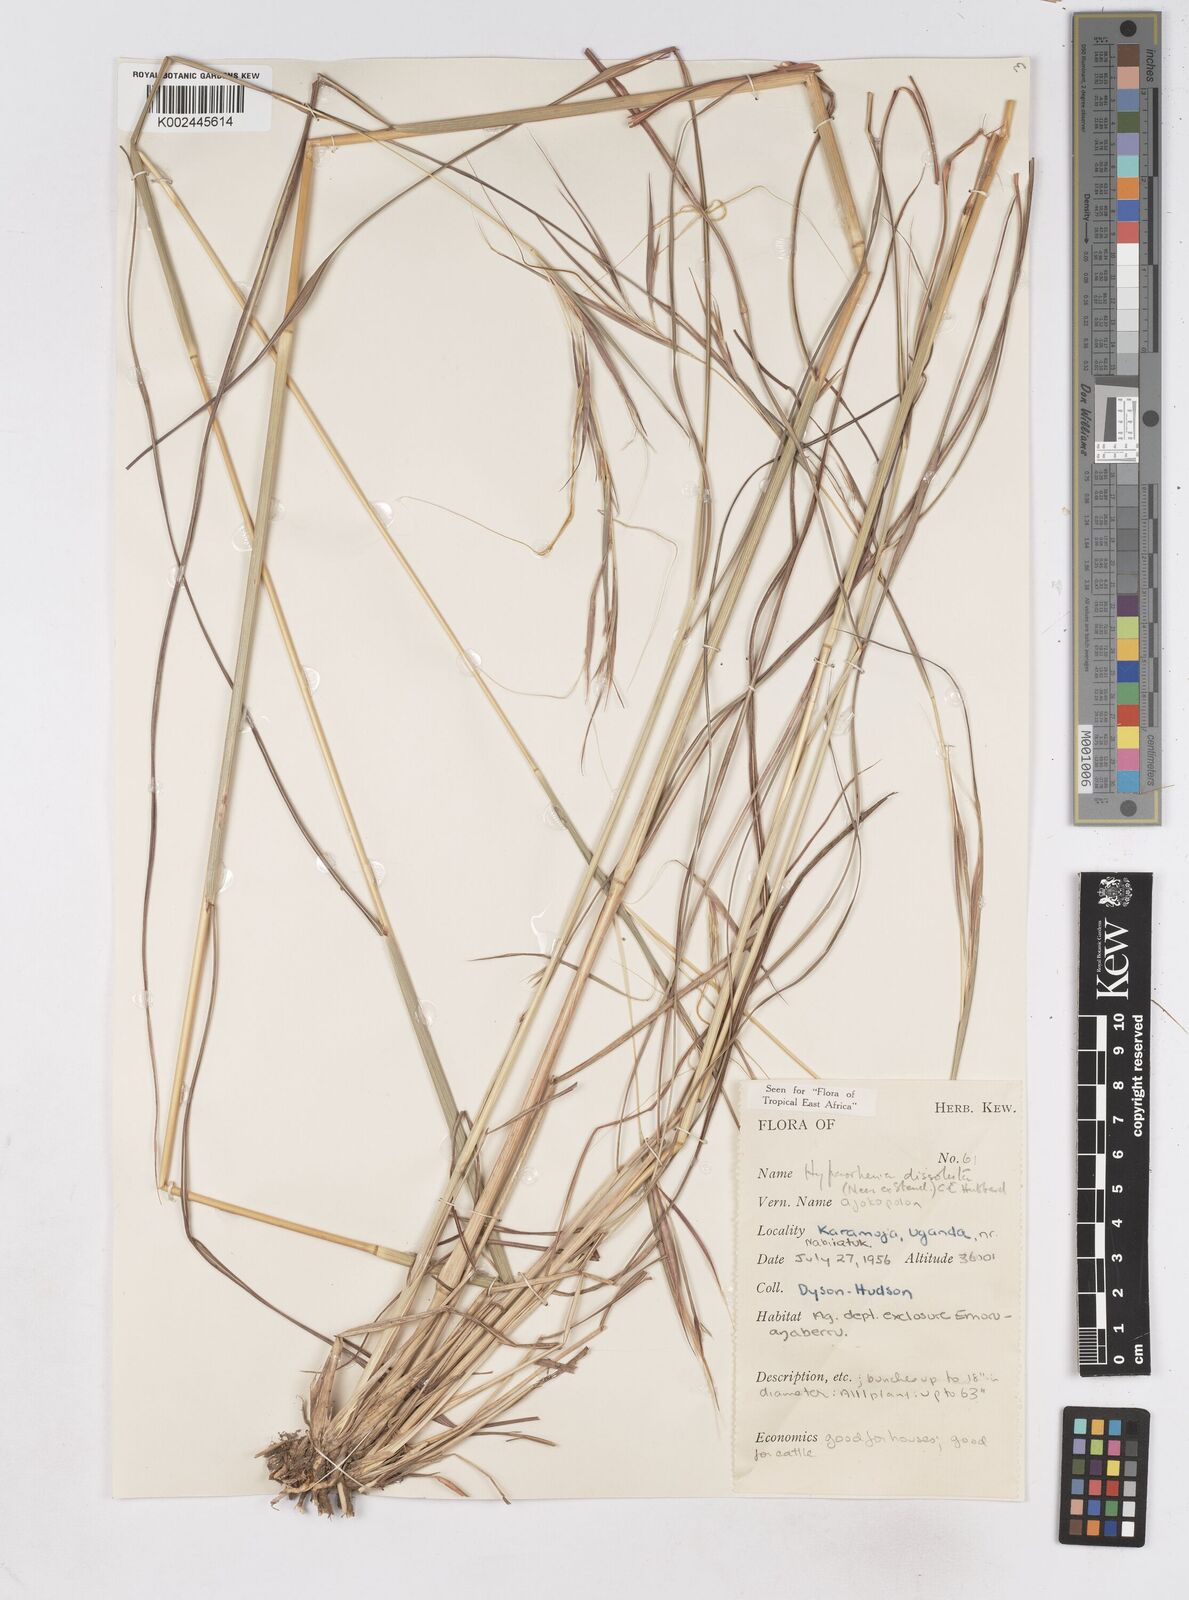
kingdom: Plantae
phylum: Tracheophyta
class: Liliopsida
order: Poales
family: Poaceae
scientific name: Poaceae
